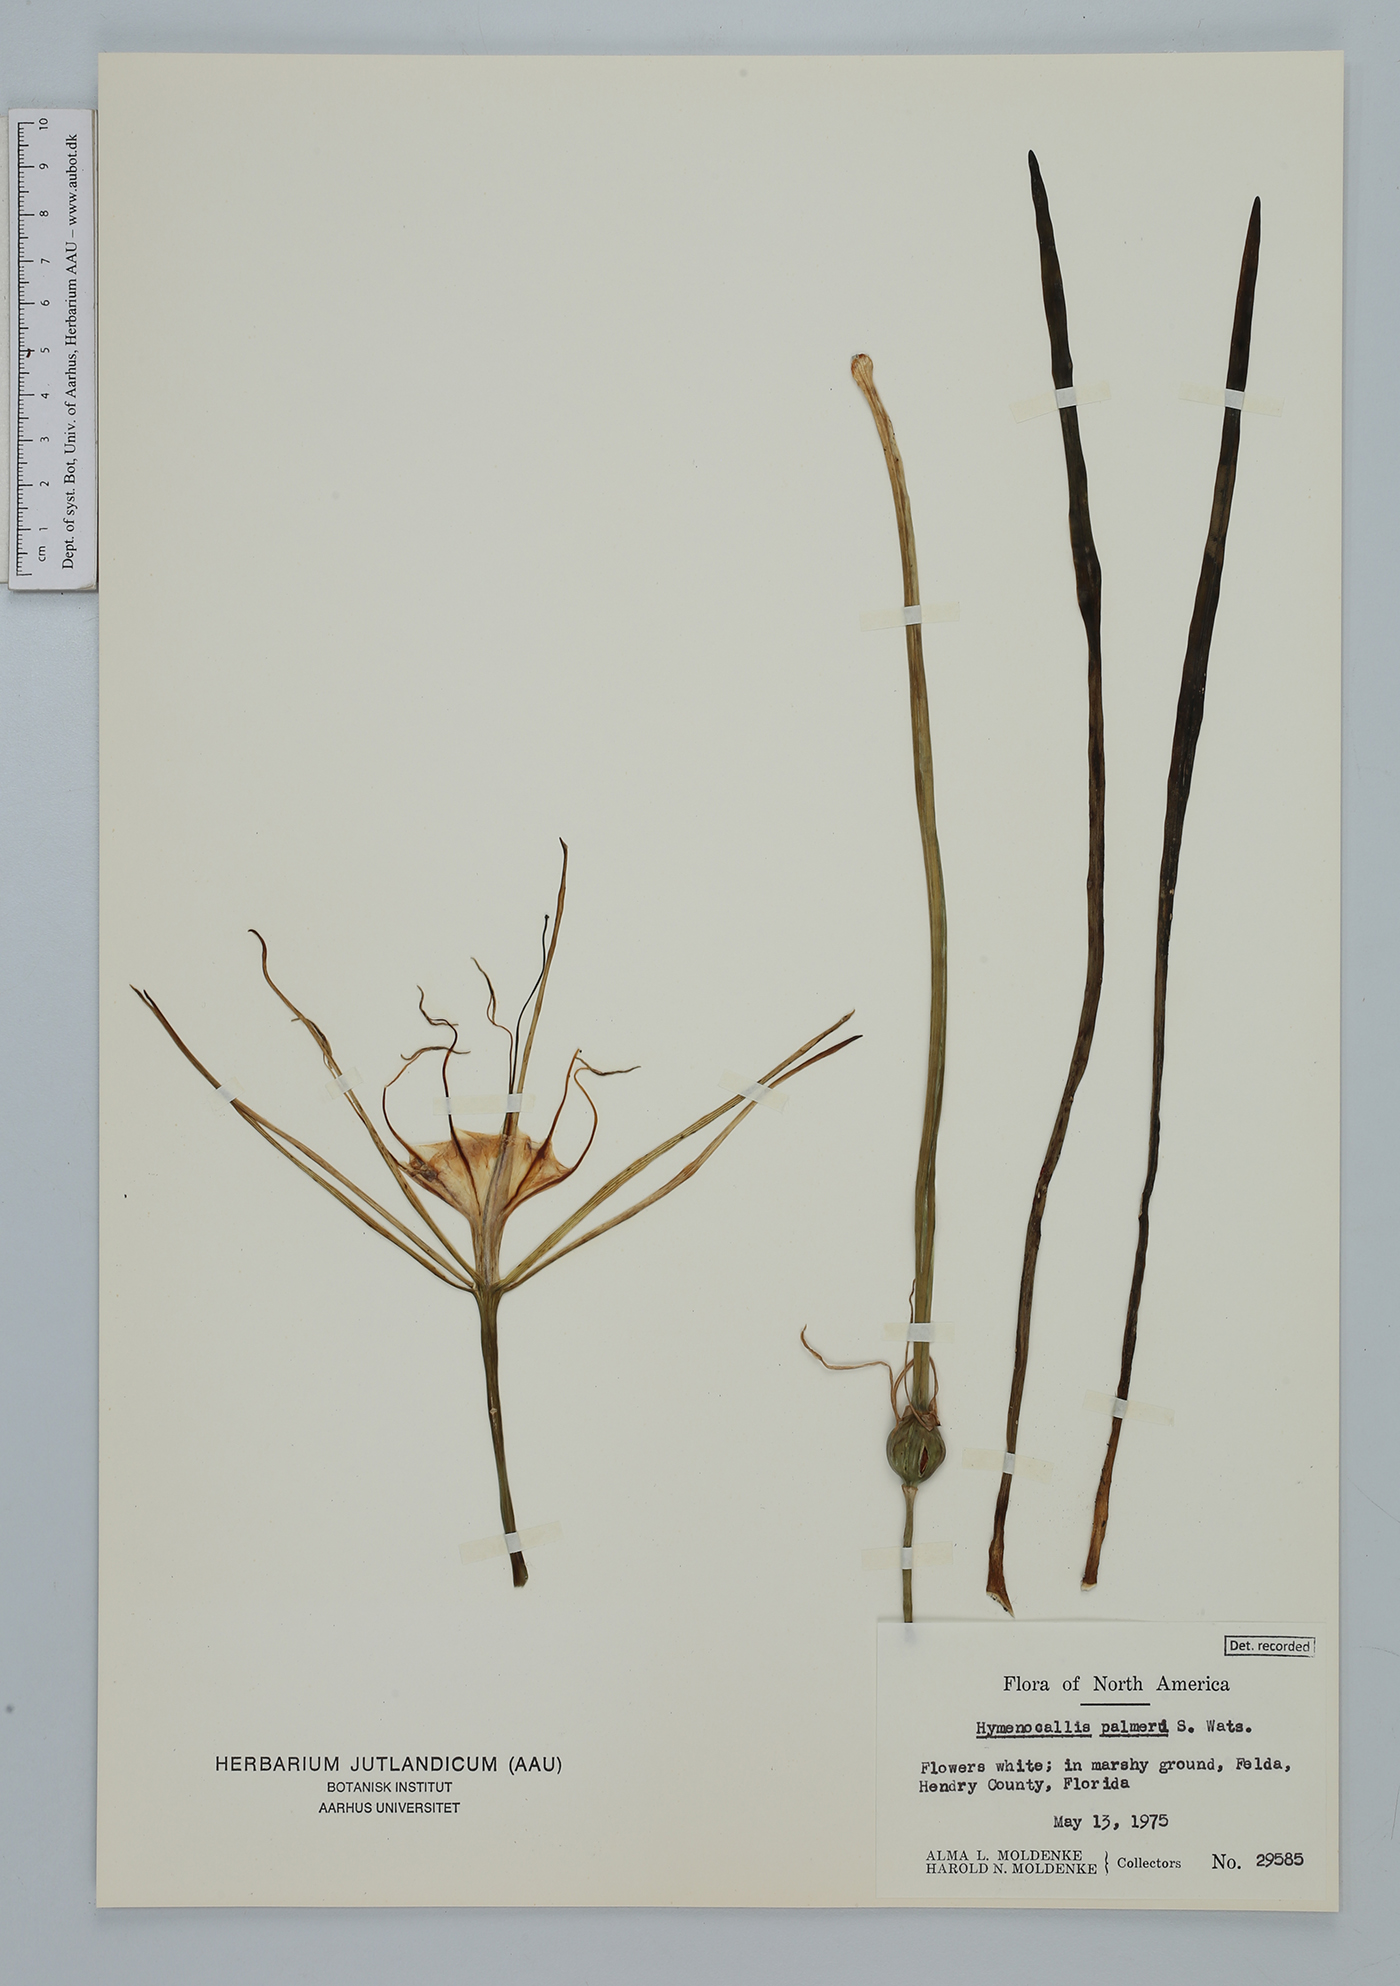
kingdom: Plantae
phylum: Tracheophyta
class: Liliopsida
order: Asparagales
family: Amaryllidaceae
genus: Hymenocallis
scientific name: Hymenocallis palmeri
